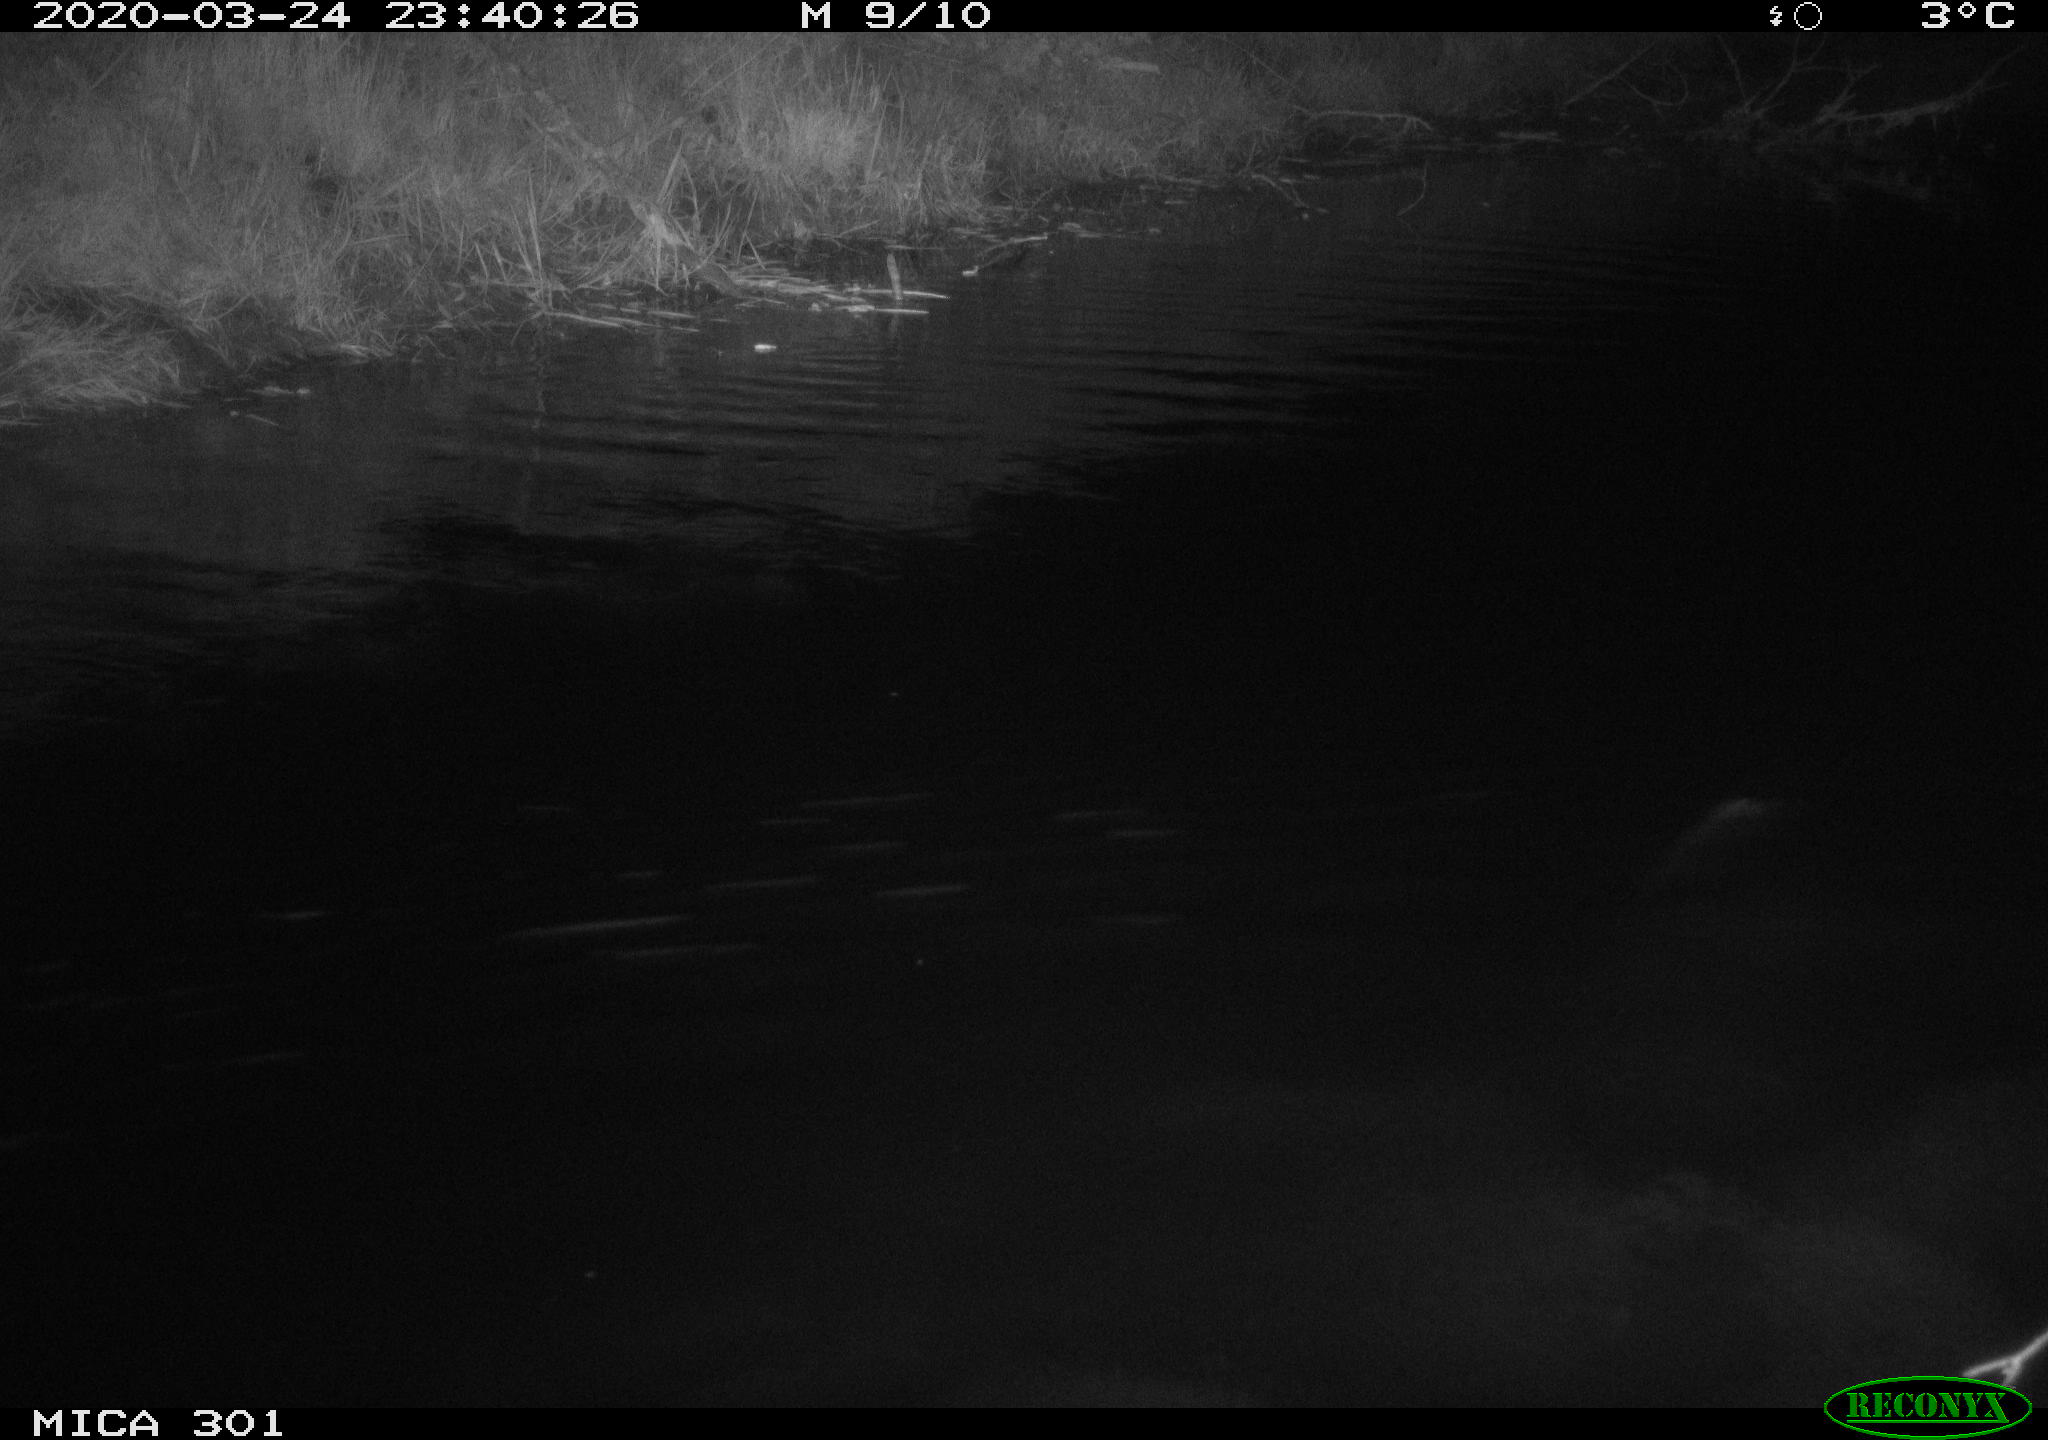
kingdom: Animalia
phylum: Chordata
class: Mammalia
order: Rodentia
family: Castoridae
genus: Castor
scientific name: Castor fiber
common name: Eurasian beaver
